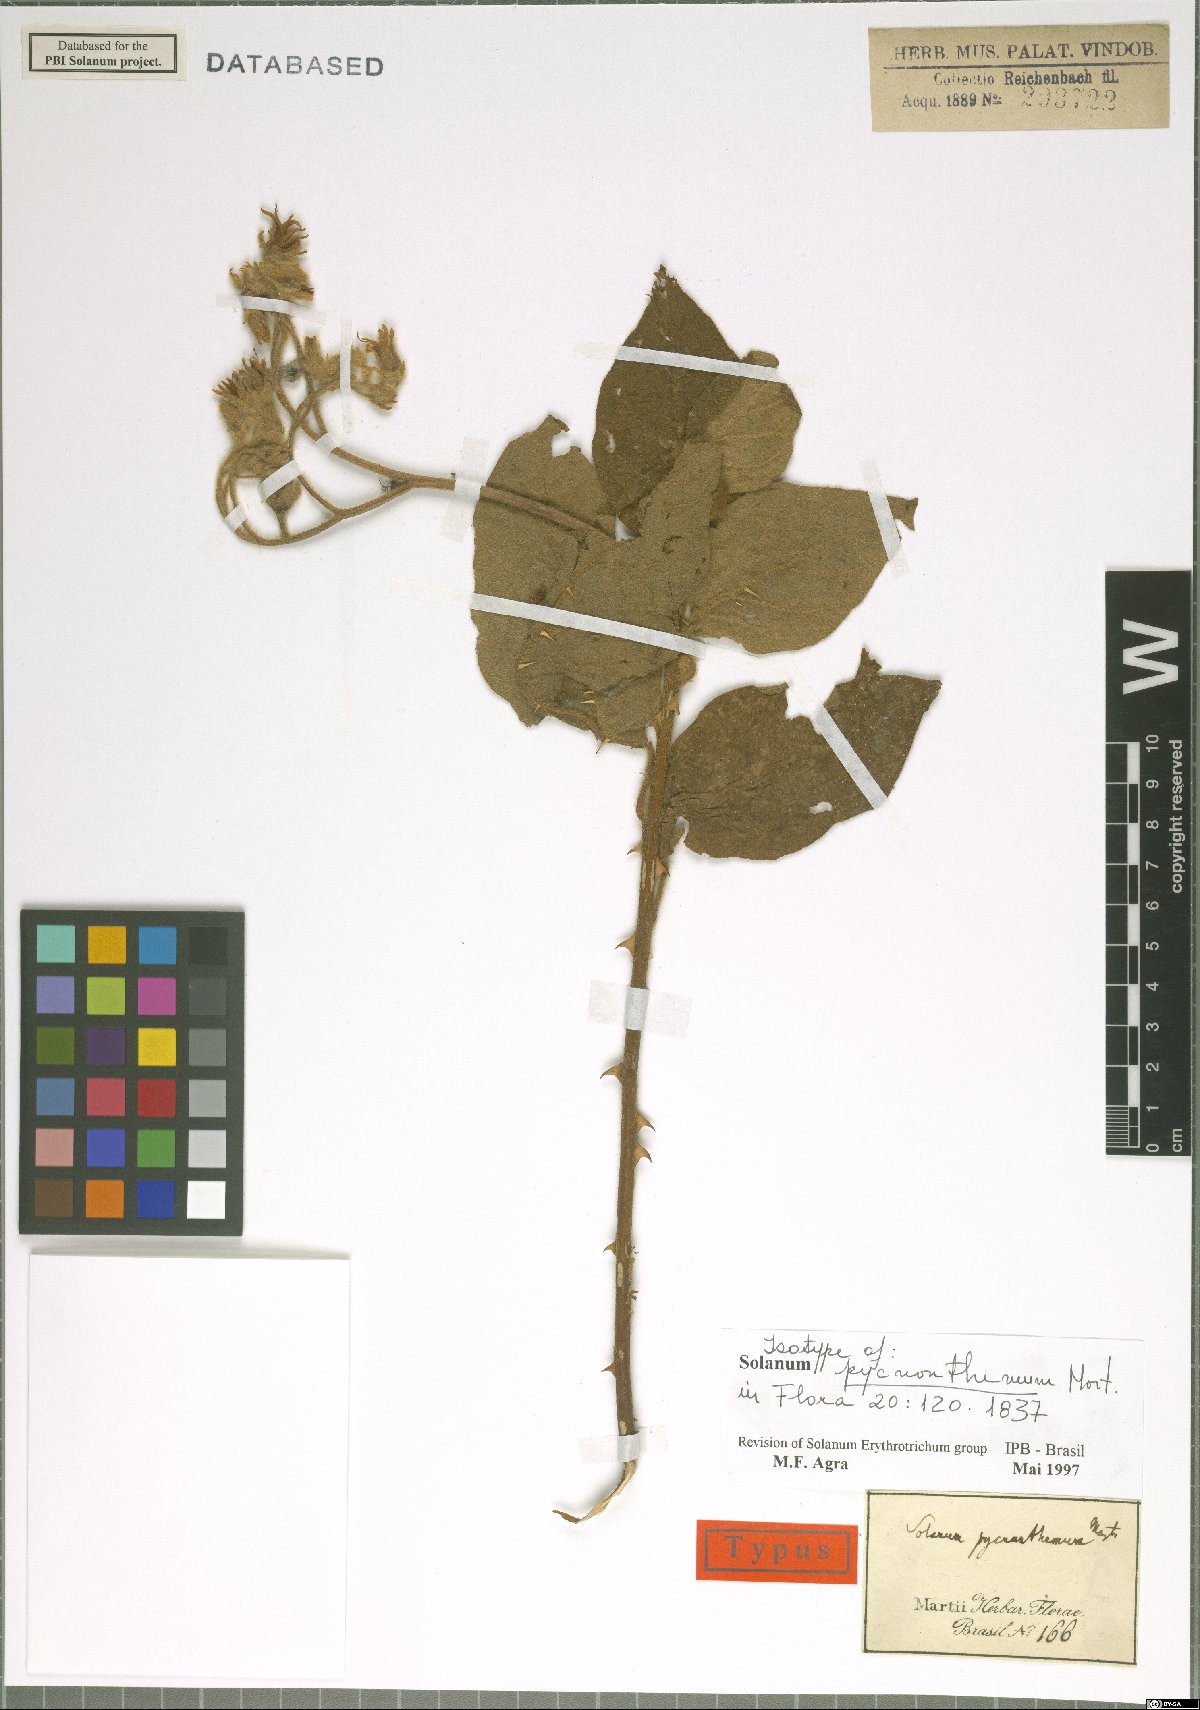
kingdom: Plantae
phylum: Tracheophyta
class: Magnoliopsida
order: Solanales
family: Solanaceae
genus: Solanum
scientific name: Solanum pycnanthemum
